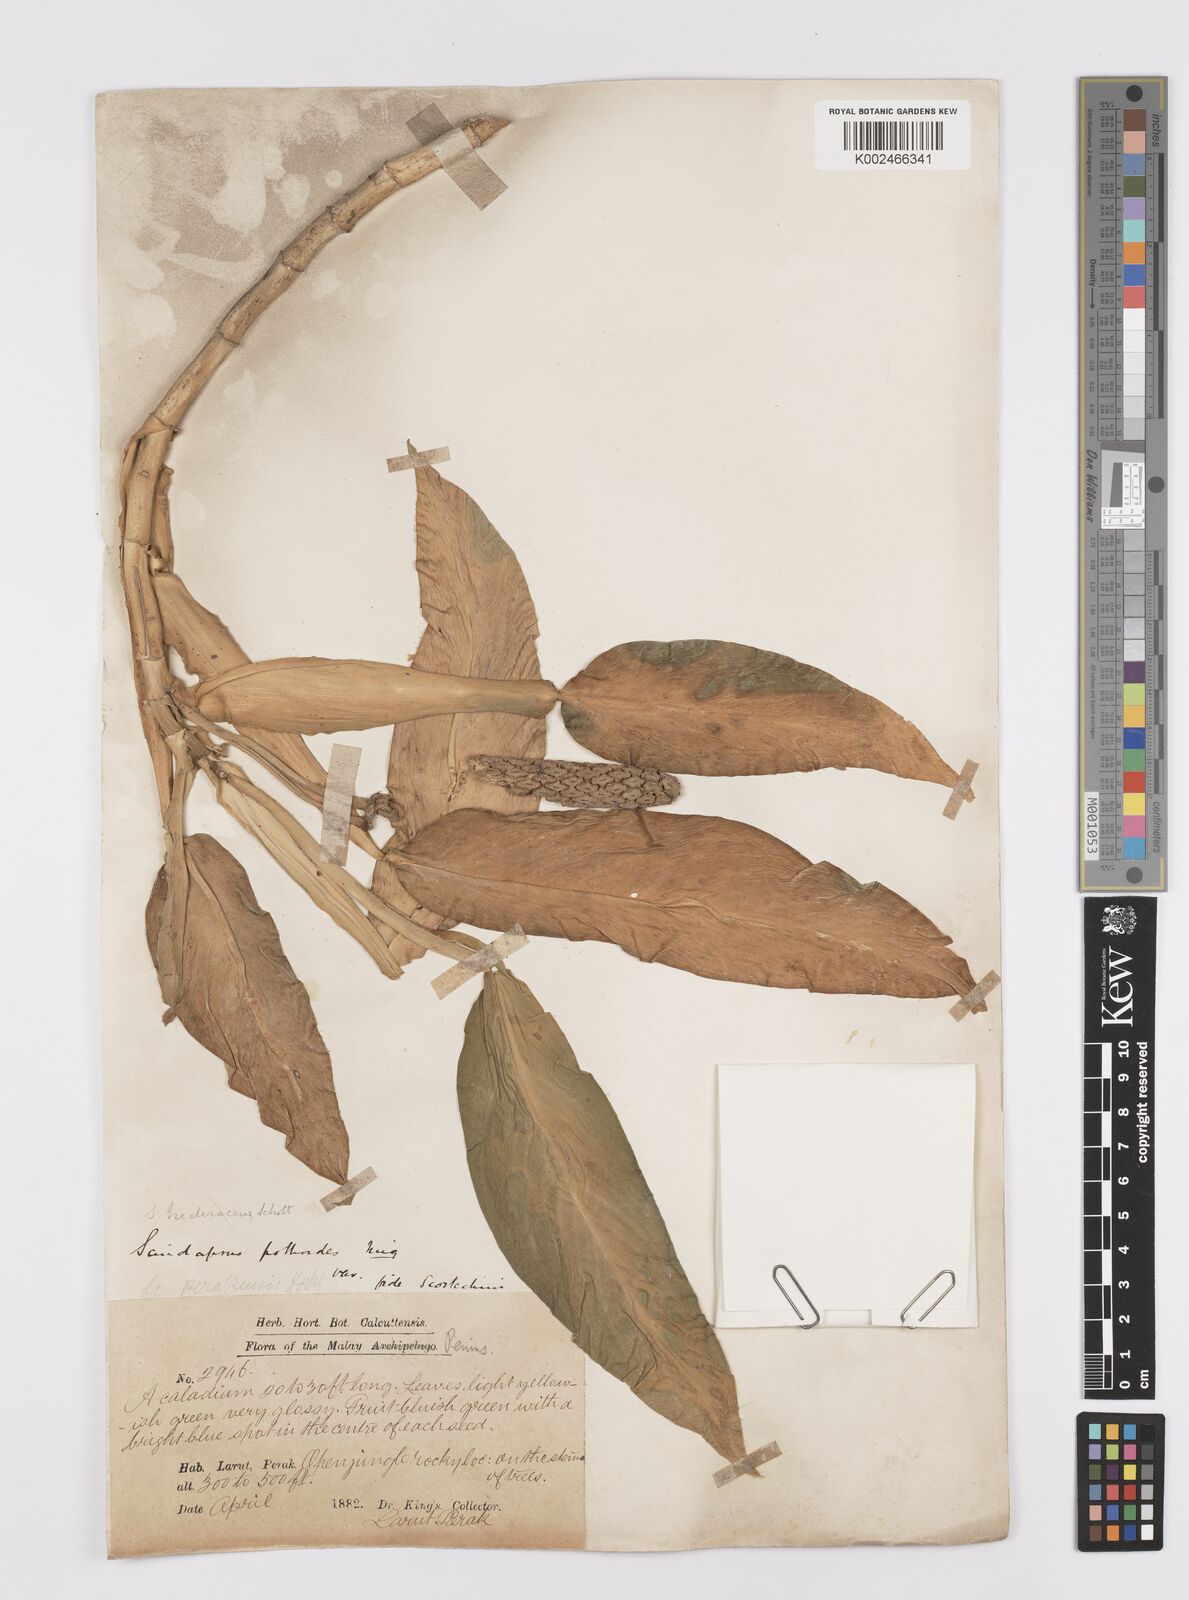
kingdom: Plantae
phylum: Tracheophyta
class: Liliopsida
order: Alismatales
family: Araceae
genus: Scindapsus
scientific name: Scindapsus perakensis
